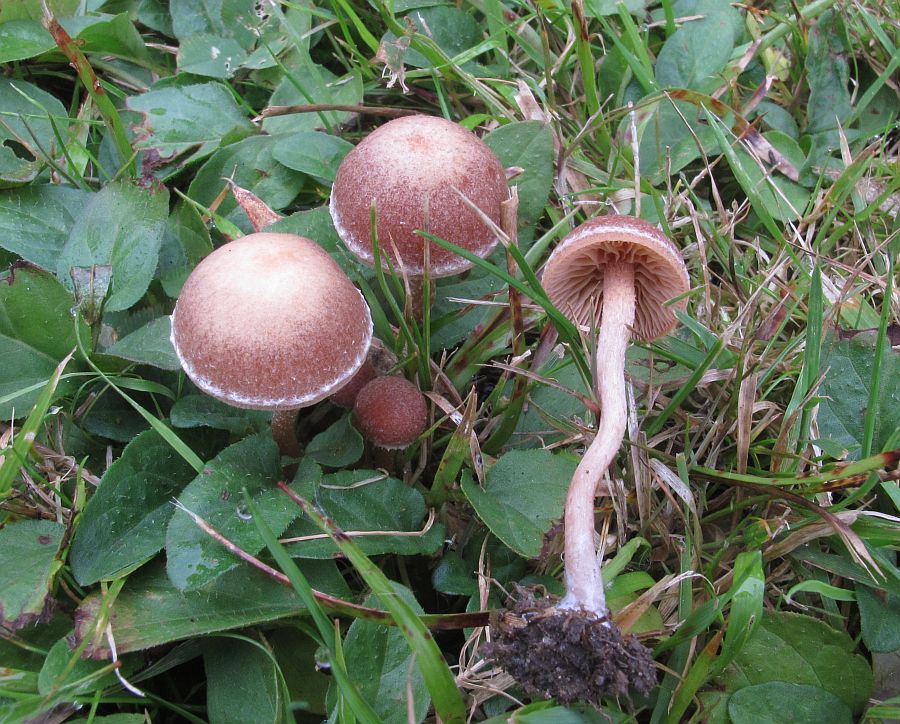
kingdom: Fungi
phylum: Basidiomycota
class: Agaricomycetes
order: Agaricales
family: Tubariaceae
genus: Tubaria
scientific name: Tubaria furfuracea
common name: kliddet fnughat
